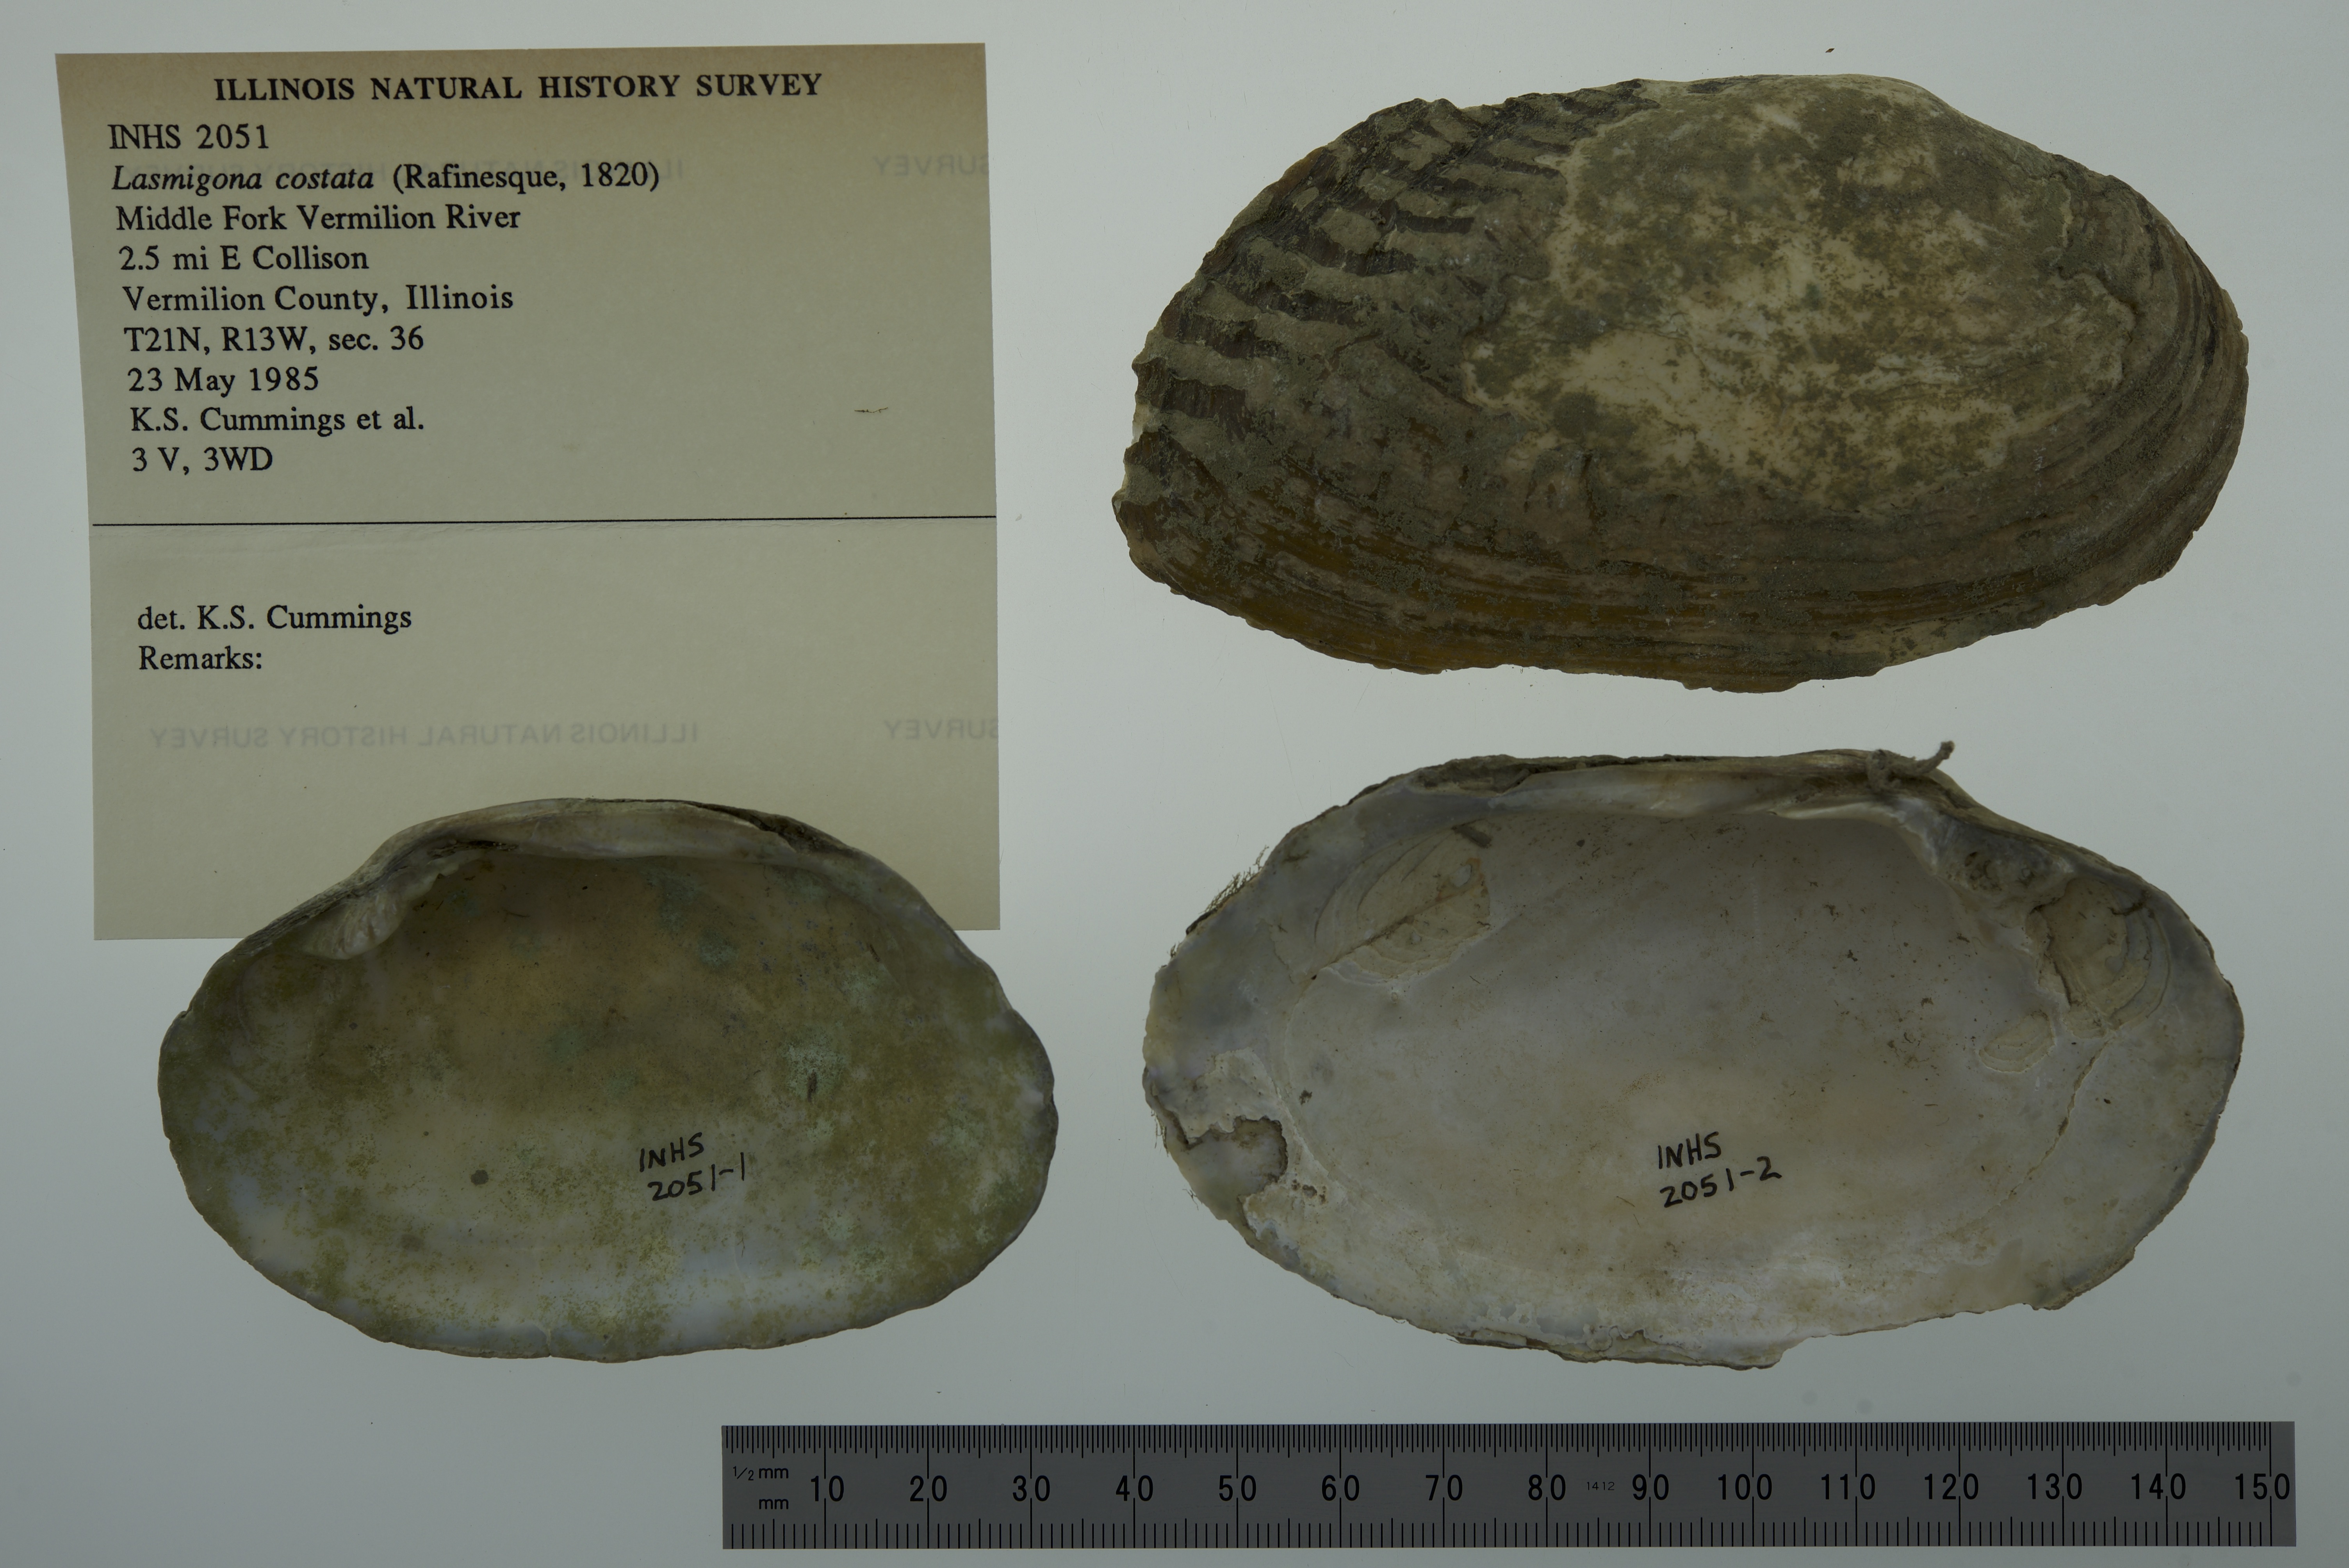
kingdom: Animalia
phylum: Mollusca
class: Bivalvia
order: Unionida
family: Unionidae
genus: Lasmigona
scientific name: Lasmigona costata
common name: Flutedshell
